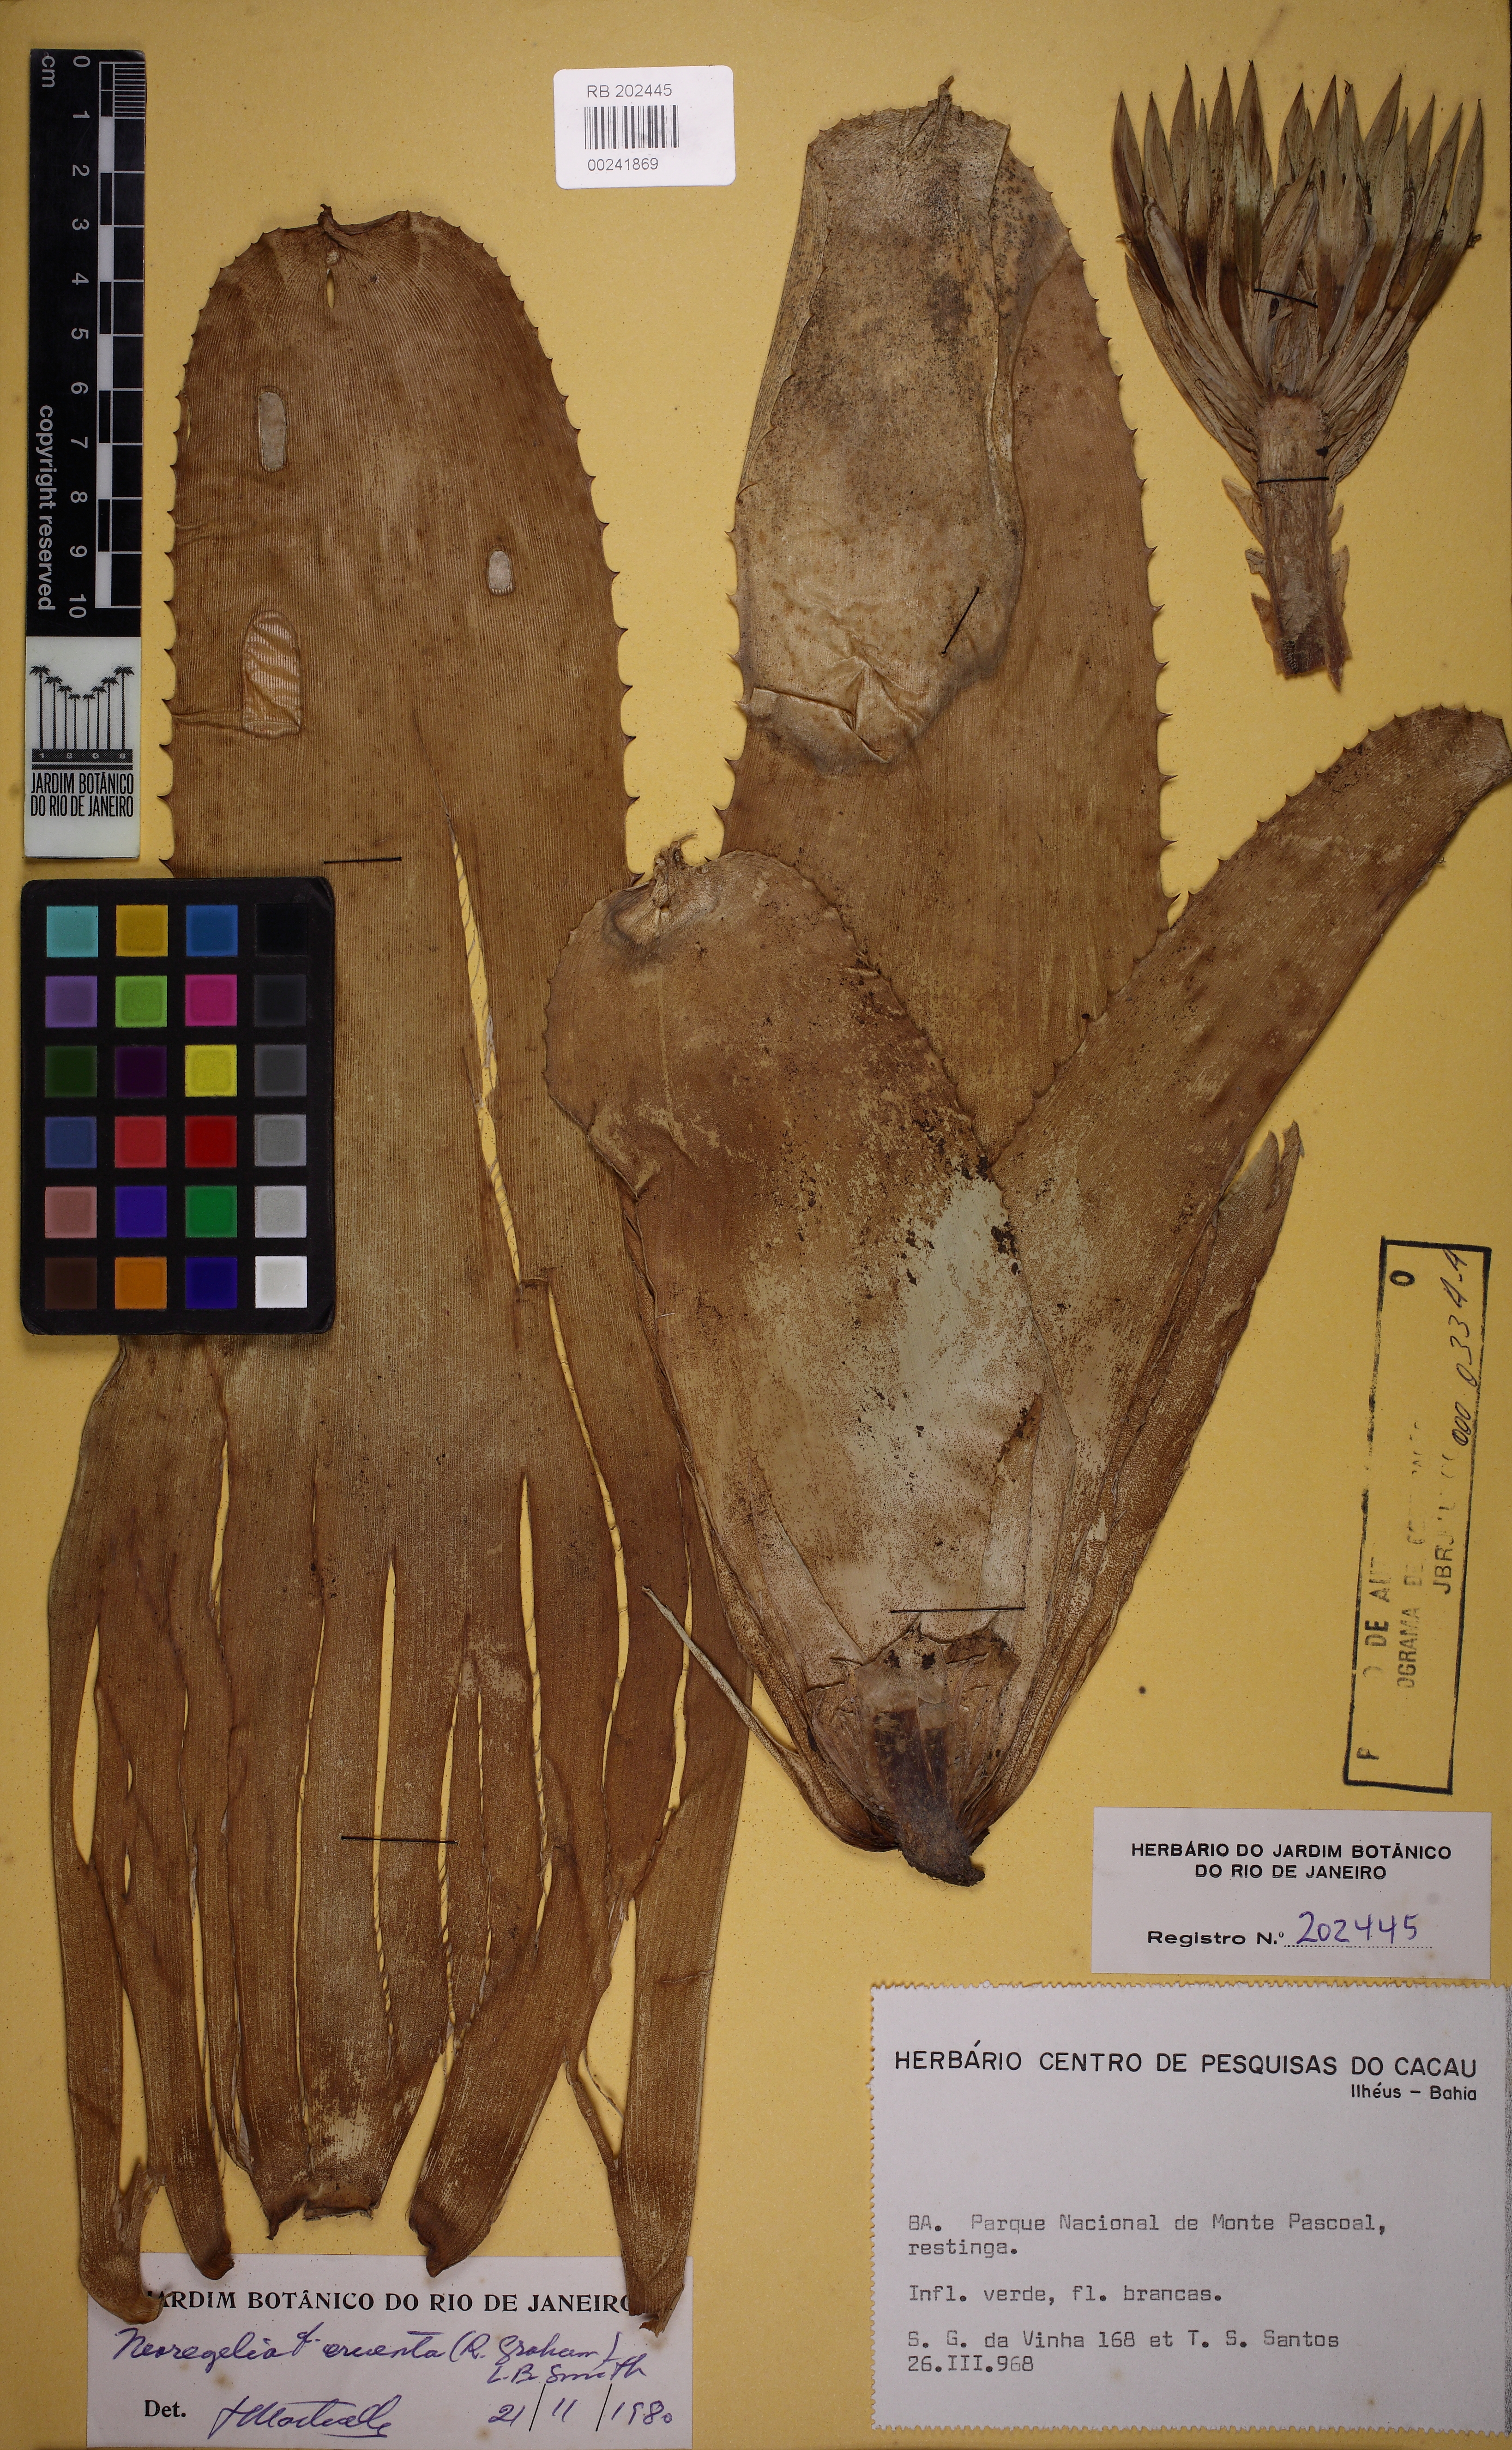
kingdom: Plantae
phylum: Tracheophyta
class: Liliopsida
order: Poales
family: Bromeliaceae
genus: Neoregelia
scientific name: Neoregelia pascoaliana
